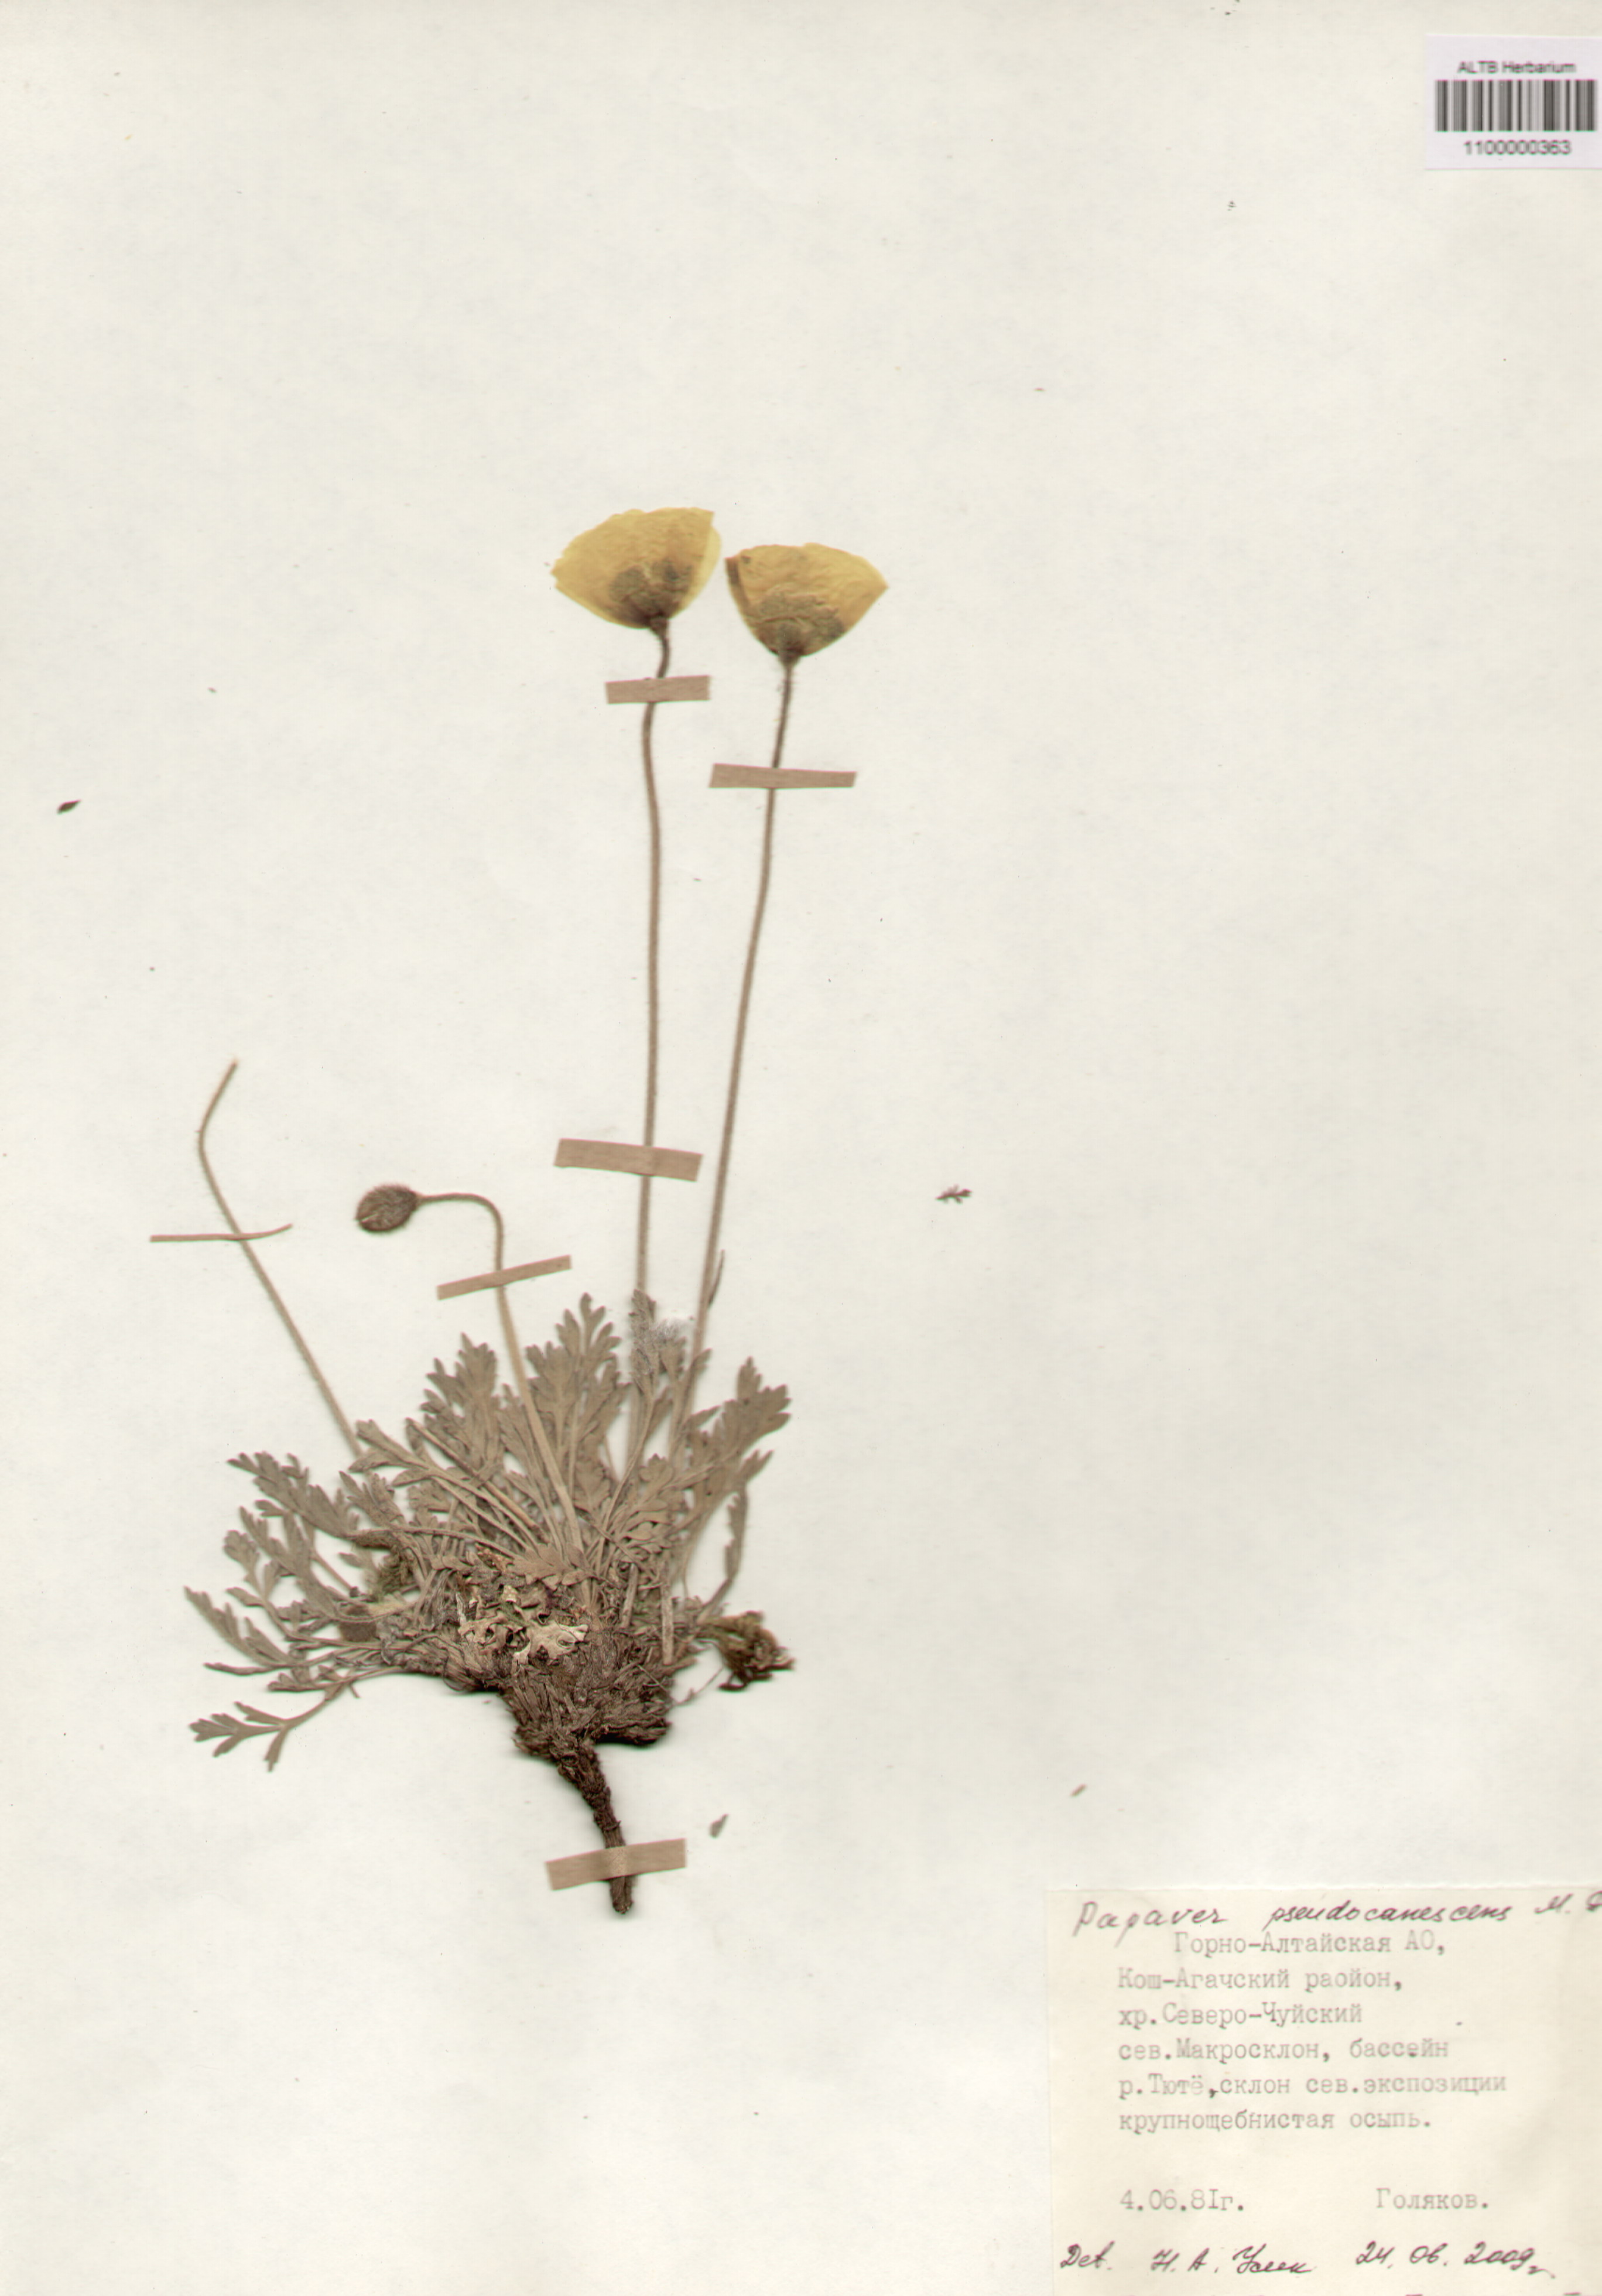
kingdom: Plantae
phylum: Tracheophyta
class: Magnoliopsida
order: Ranunculales
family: Papaveraceae
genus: Papaver
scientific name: Papaver canescens
